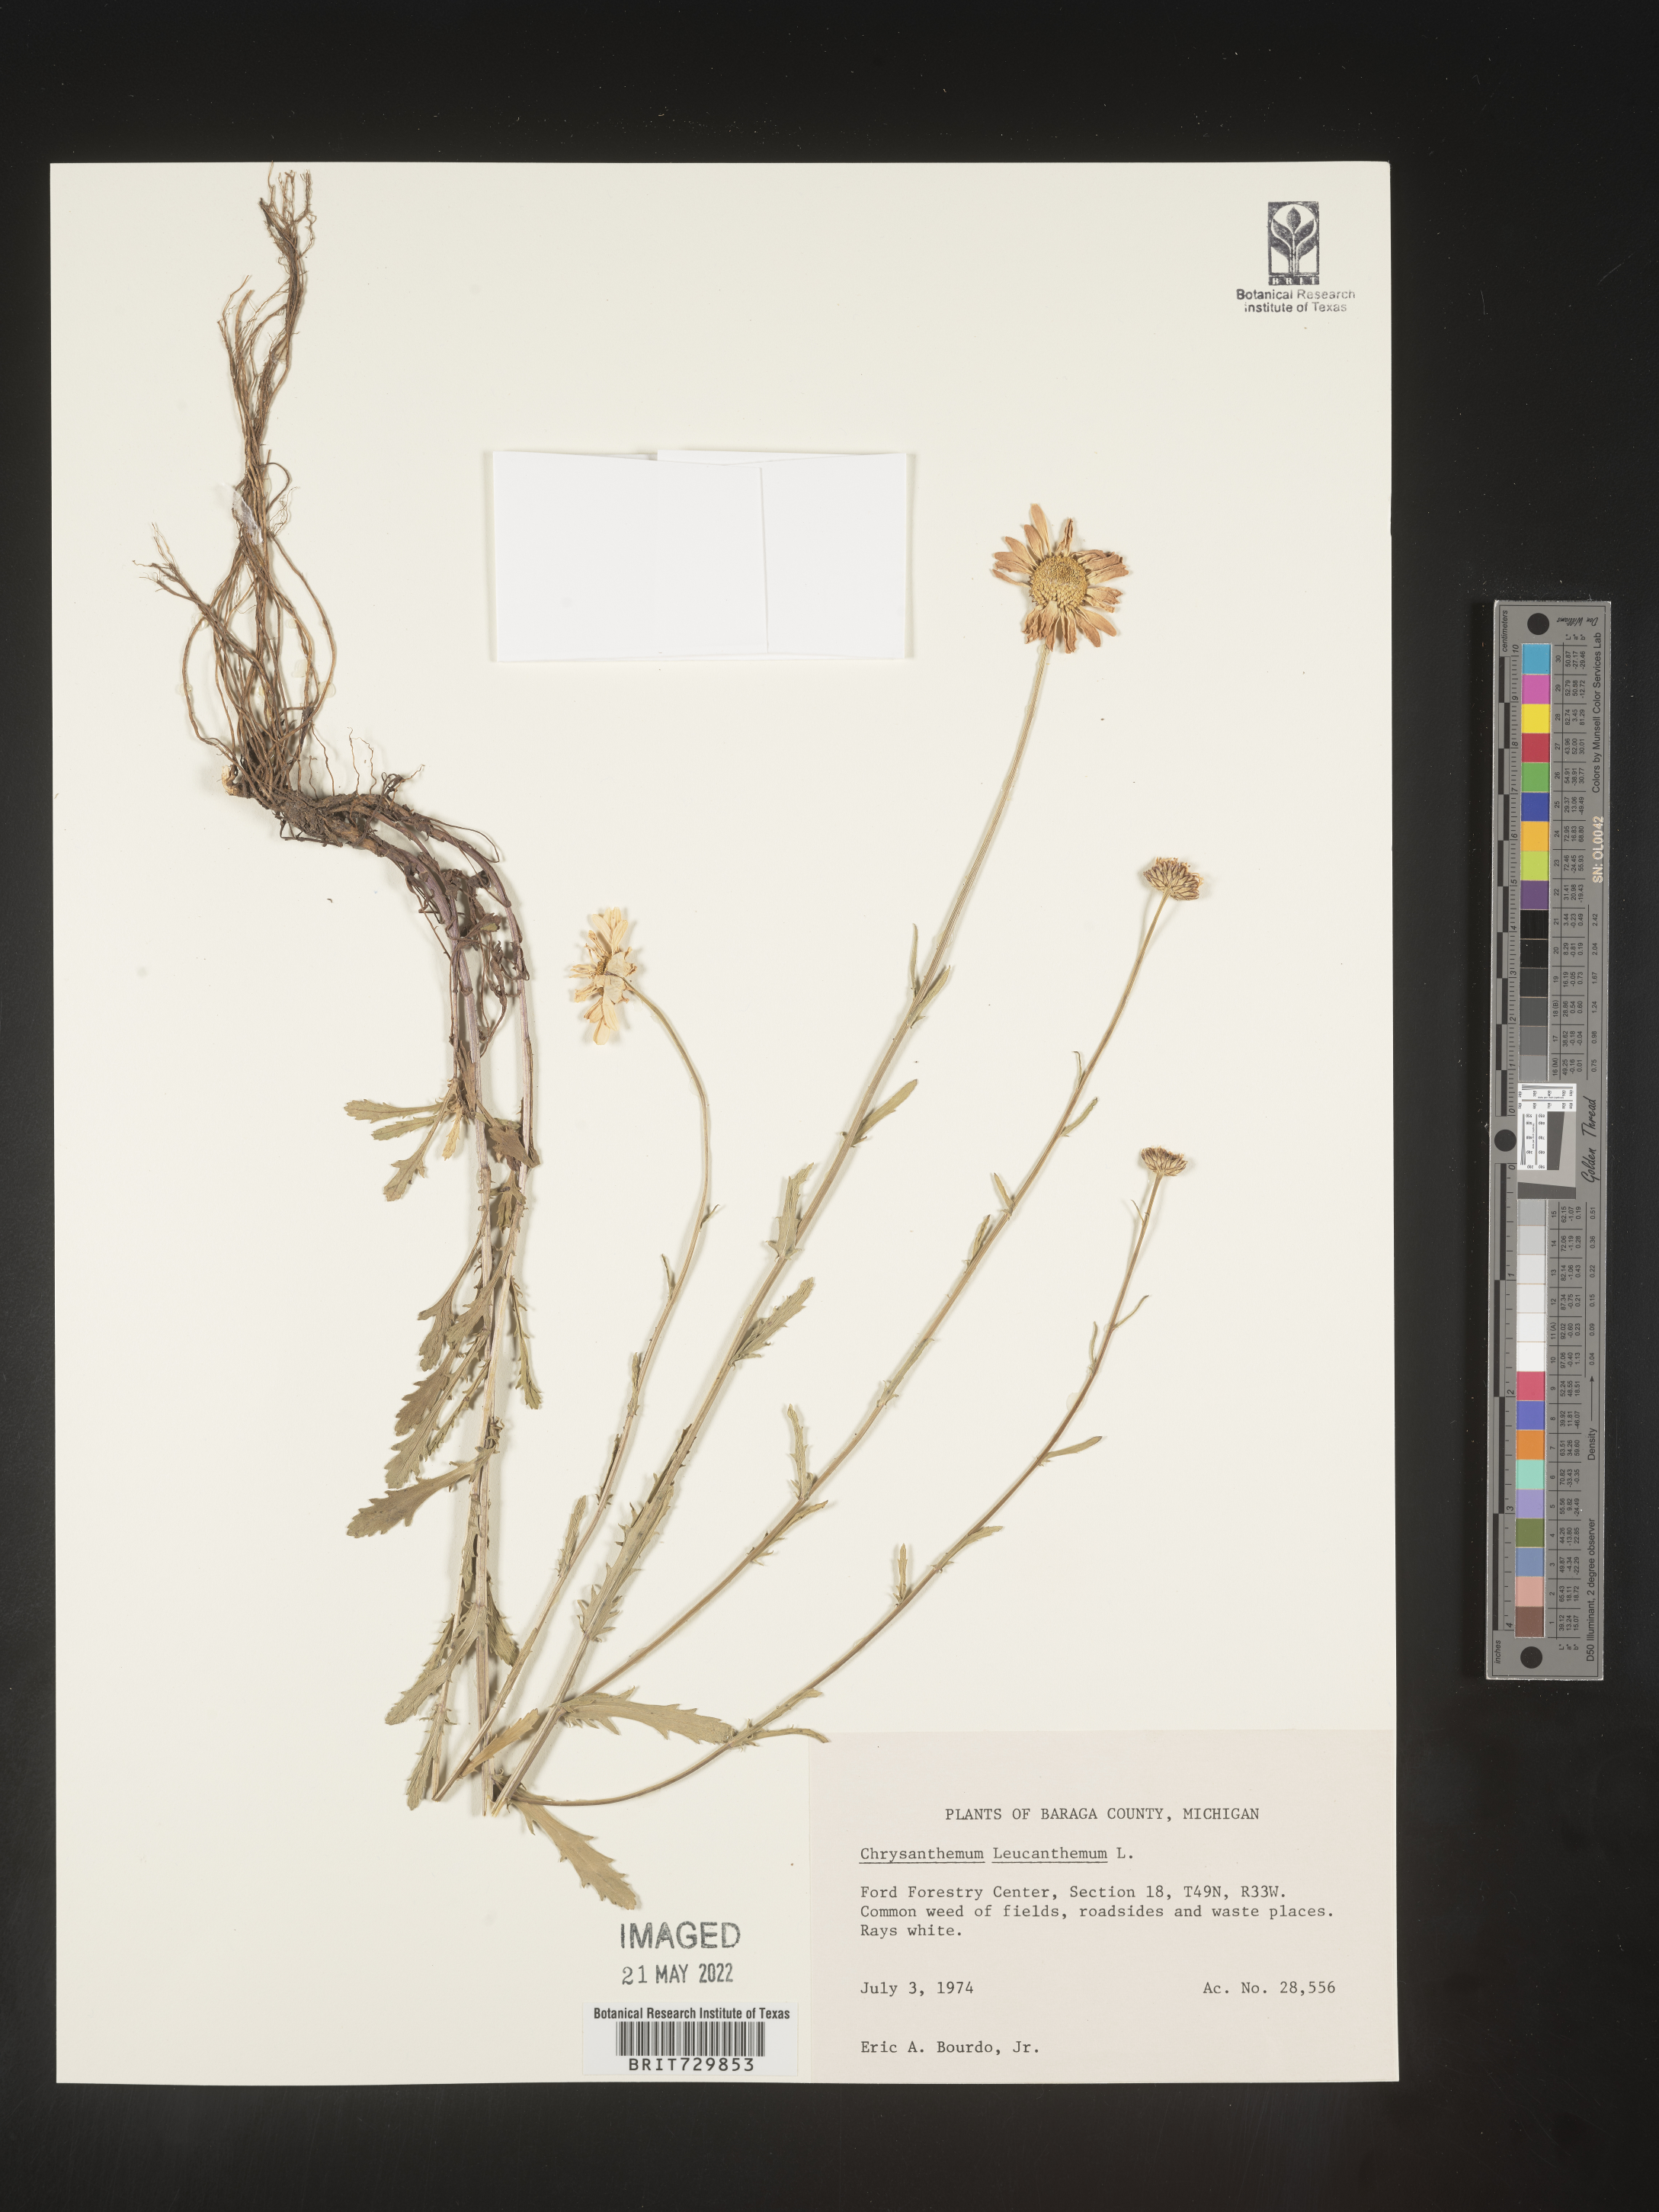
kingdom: Plantae
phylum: Tracheophyta
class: Magnoliopsida
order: Asterales
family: Asteraceae
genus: Leucanthemum
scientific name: Leucanthemum vulgare
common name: Oxeye daisy
